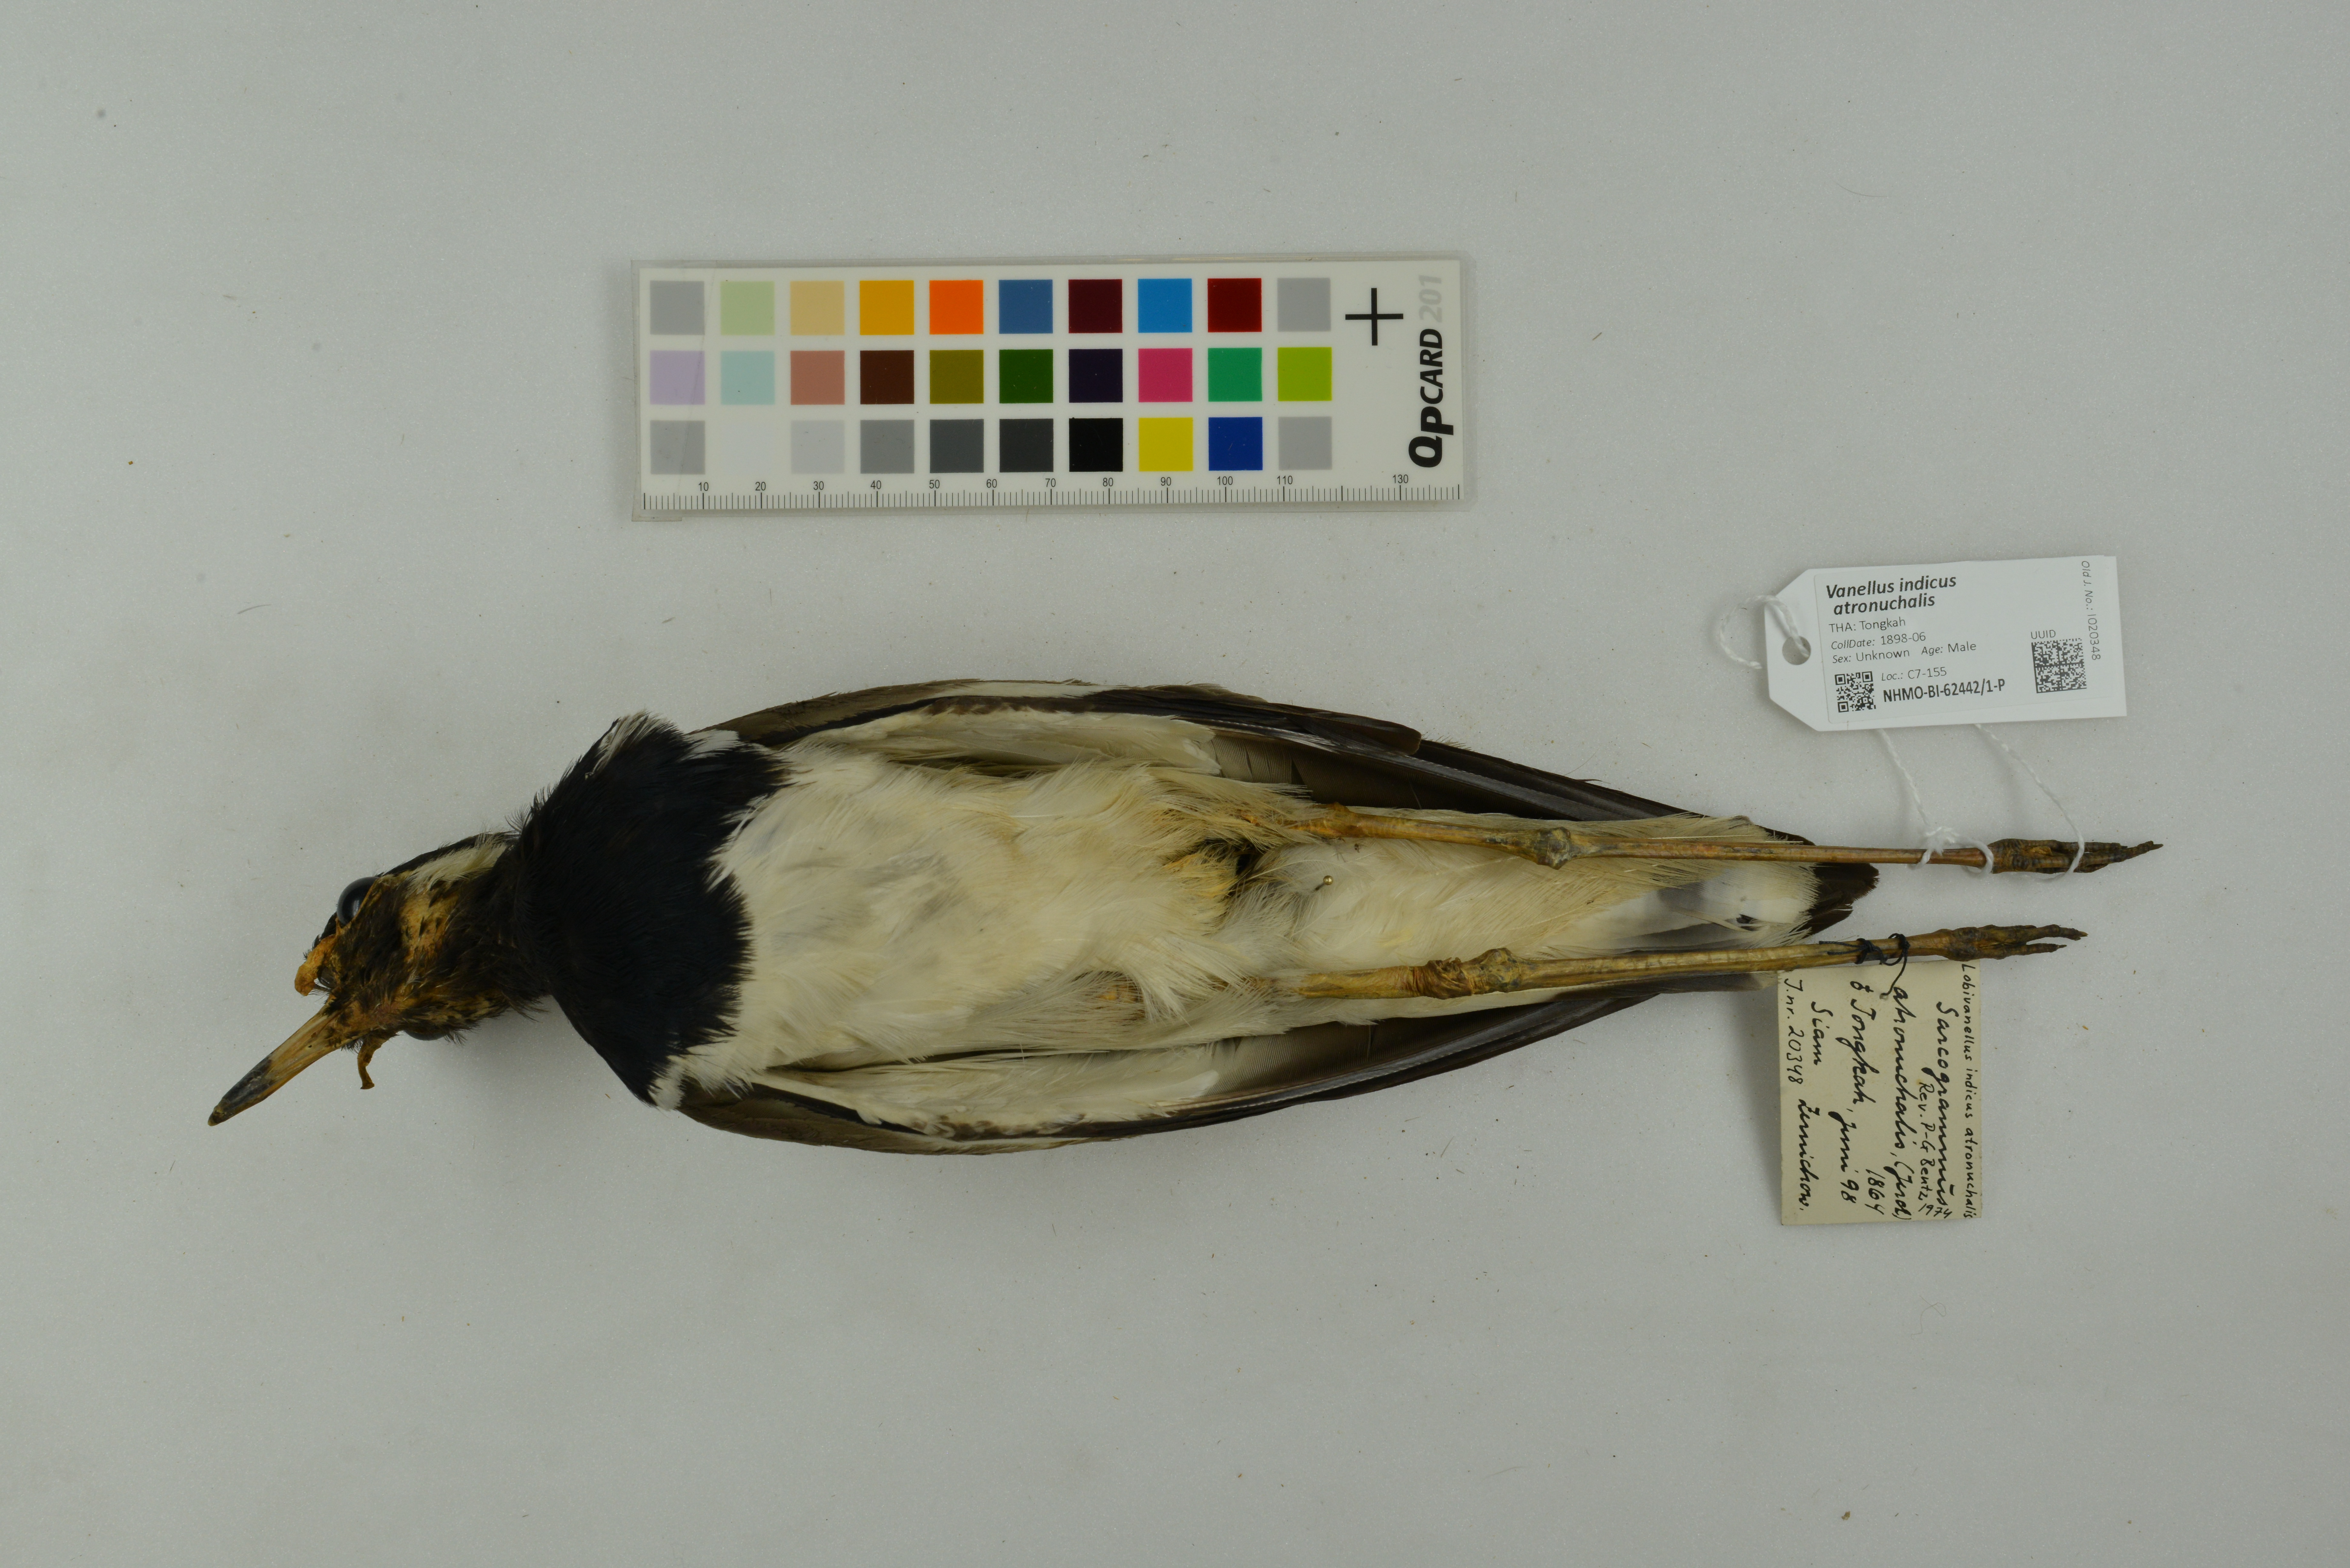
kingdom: Animalia
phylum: Chordata
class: Aves
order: Charadriiformes
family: Charadriidae
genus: Vanellus
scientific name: Vanellus indicus
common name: Red-wattled lapwing
